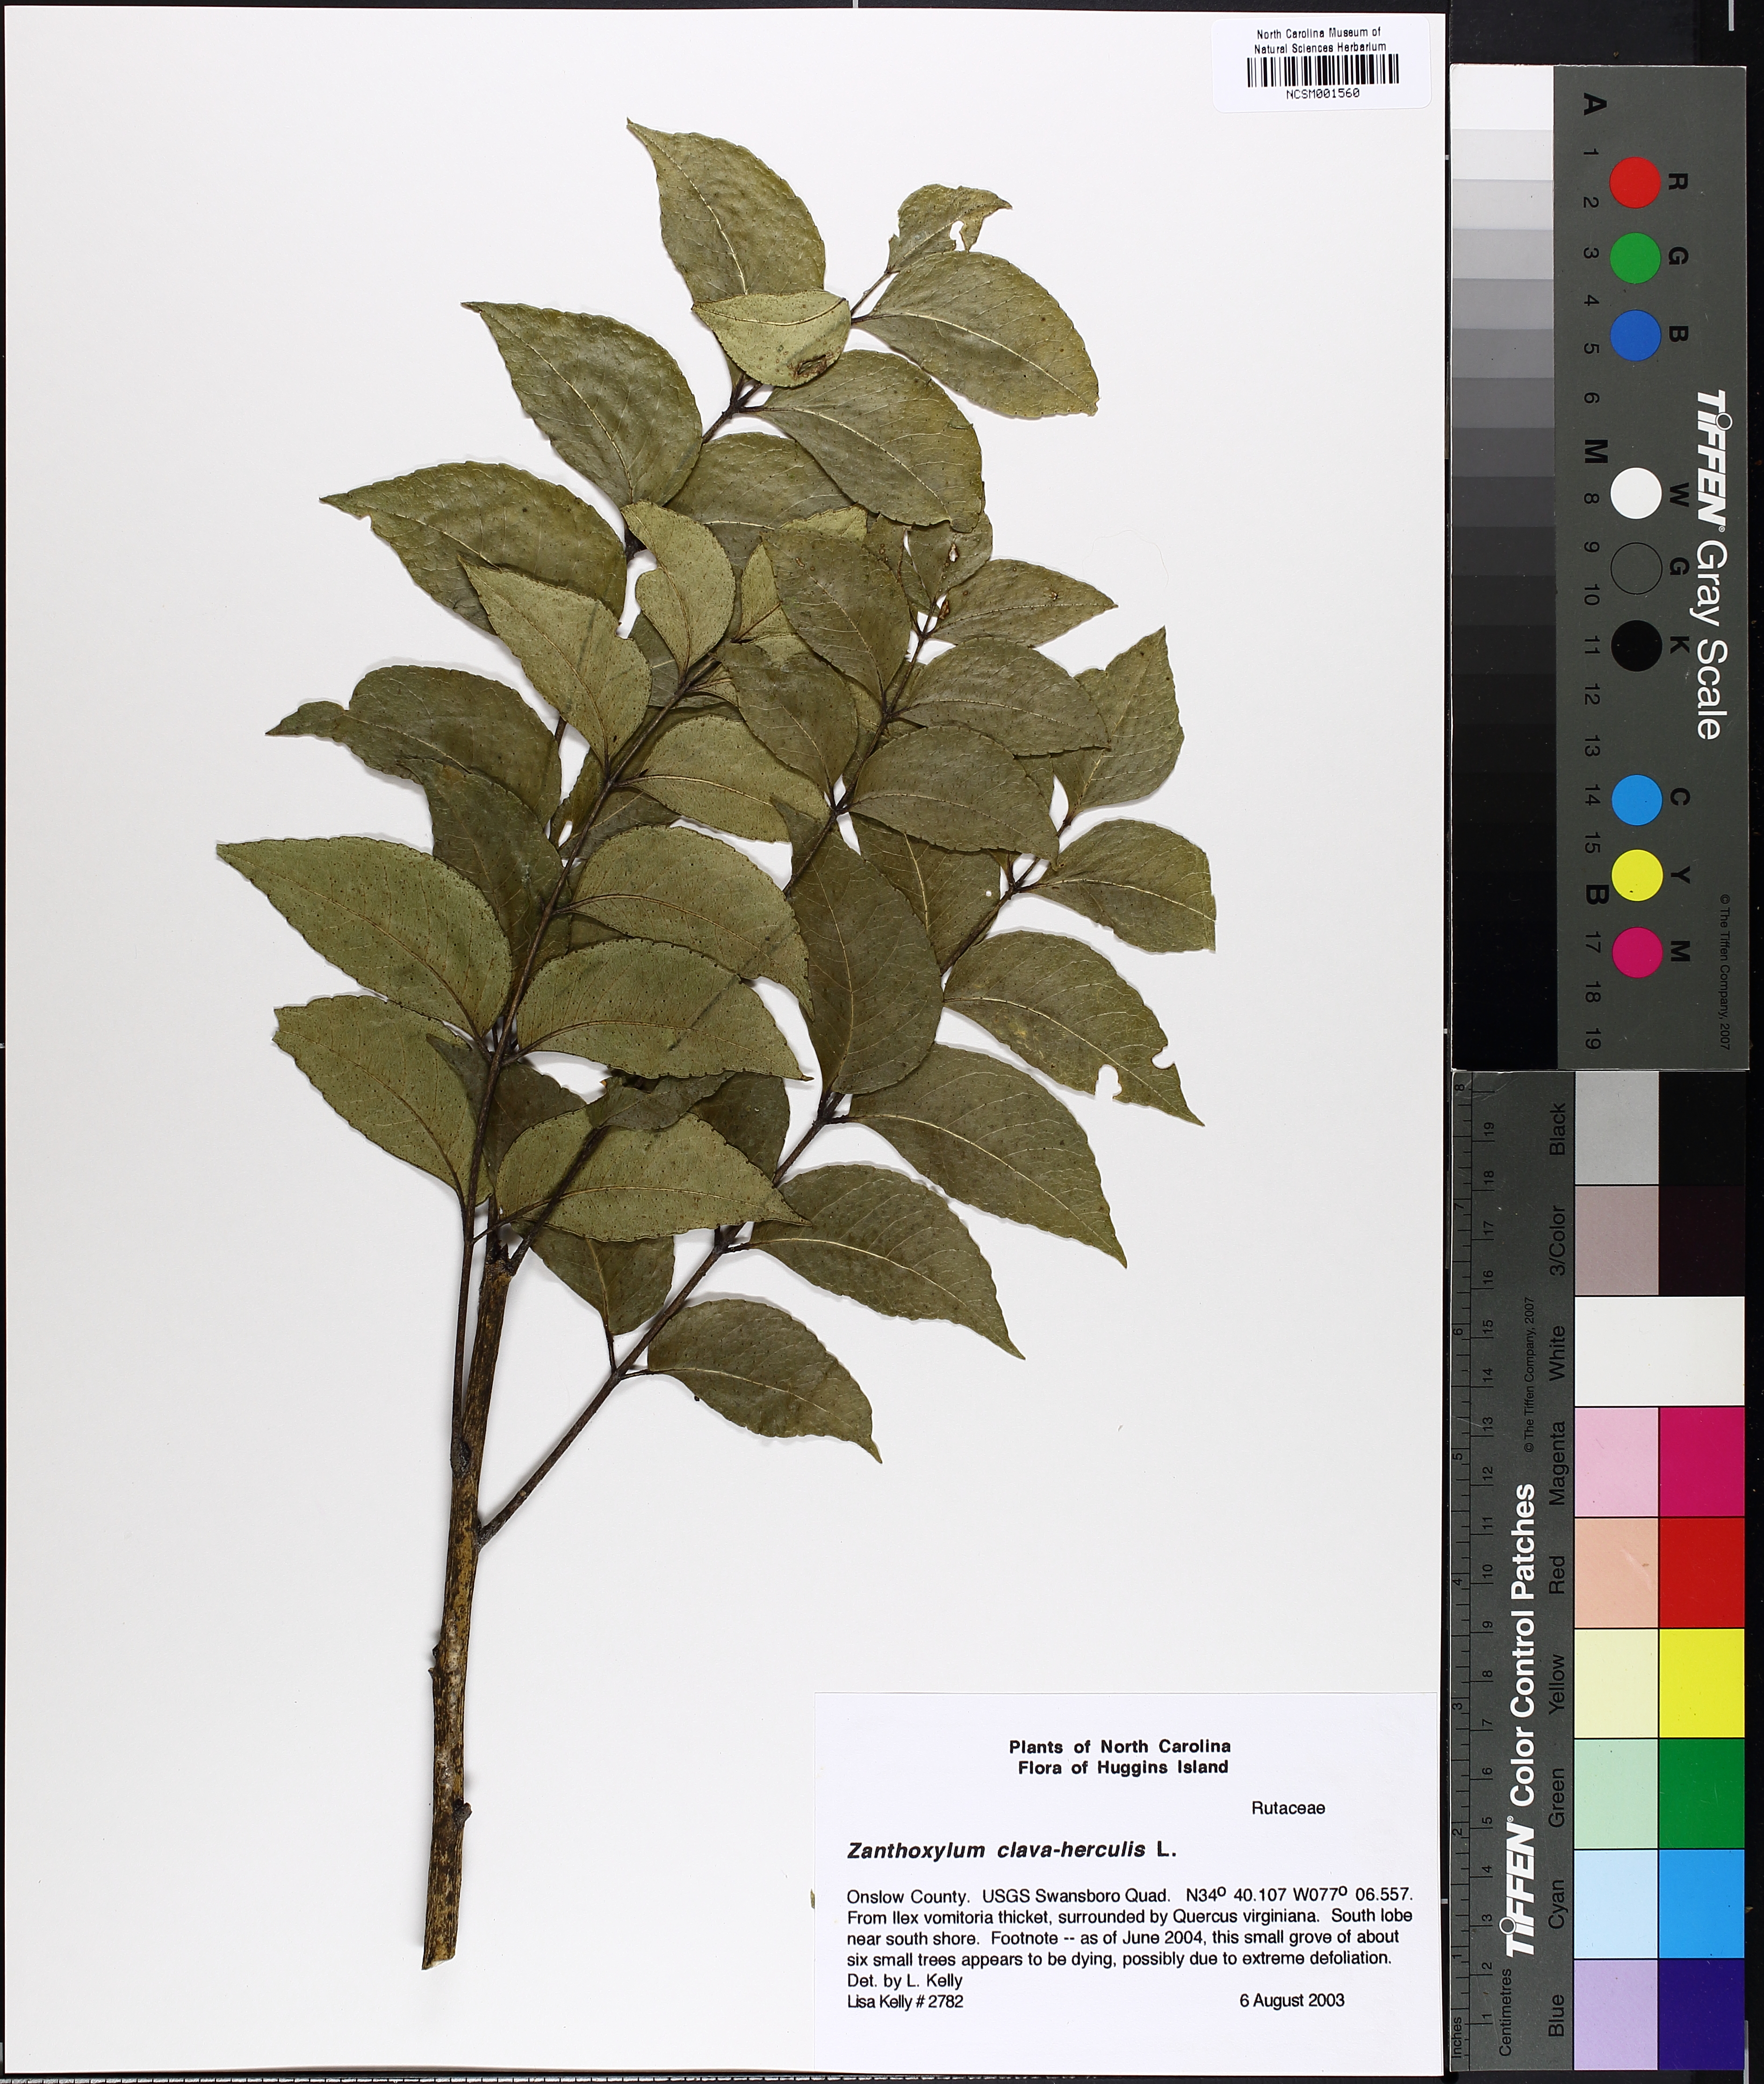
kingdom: Plantae
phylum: Tracheophyta
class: Magnoliopsida
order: Sapindales
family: Rutaceae
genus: Zanthoxylum
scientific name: Zanthoxylum avicennae
